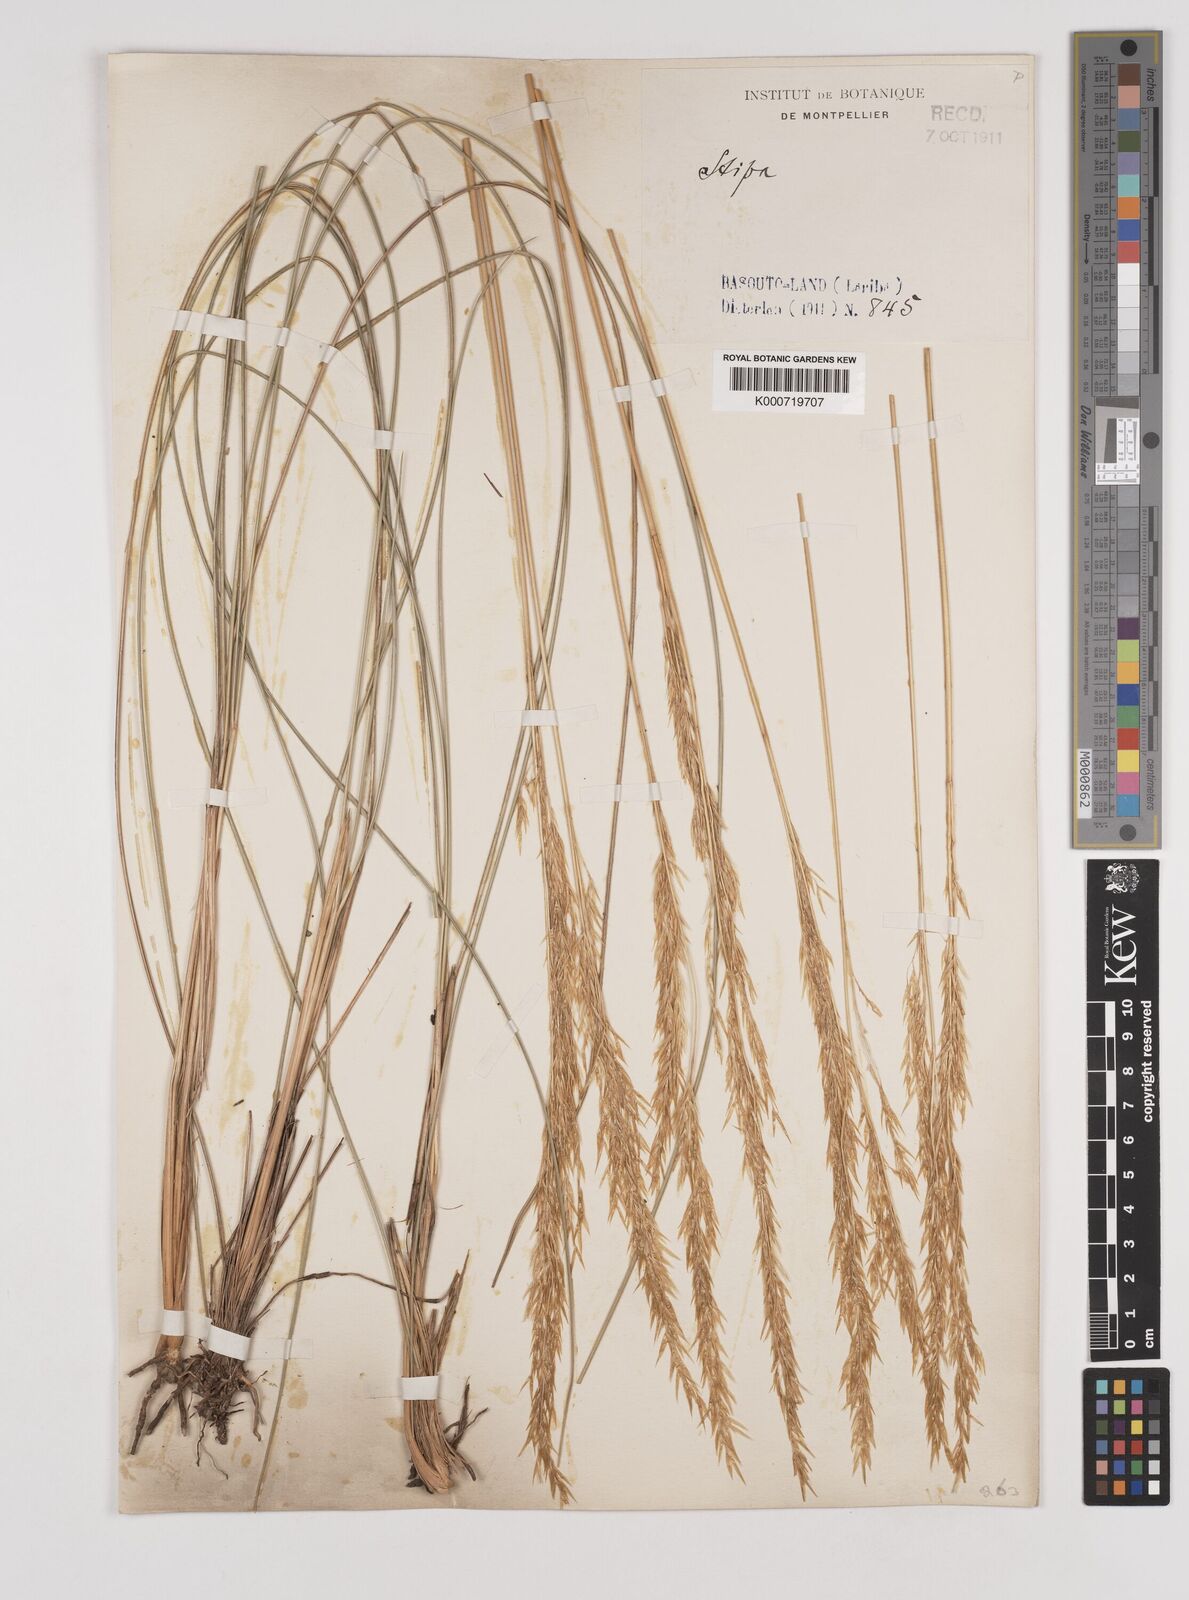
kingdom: Plantae
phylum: Tracheophyta
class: Liliopsida
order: Poales
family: Poaceae
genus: Pentameris
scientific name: Pentameris basutorum
